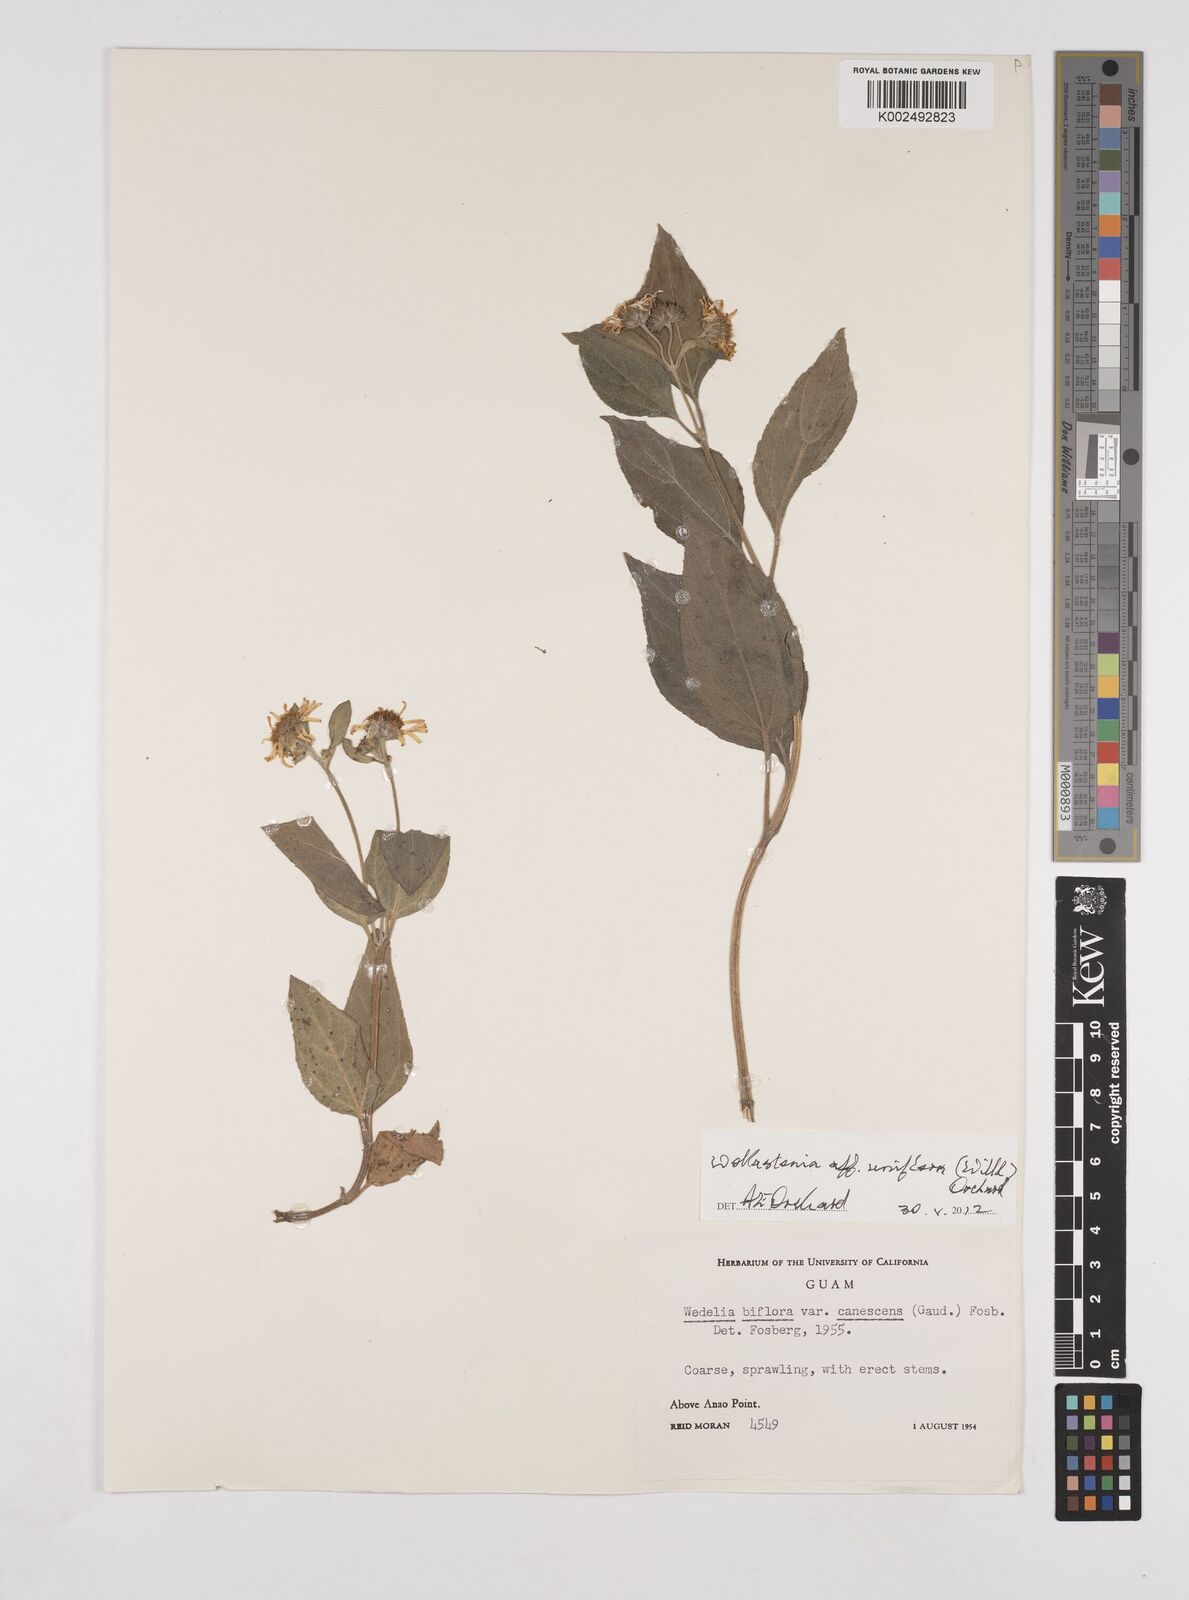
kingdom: Plantae
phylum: Tracheophyta
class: Magnoliopsida
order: Asterales
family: Asteraceae
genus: Wollastonia
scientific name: Wollastonia uniflora
